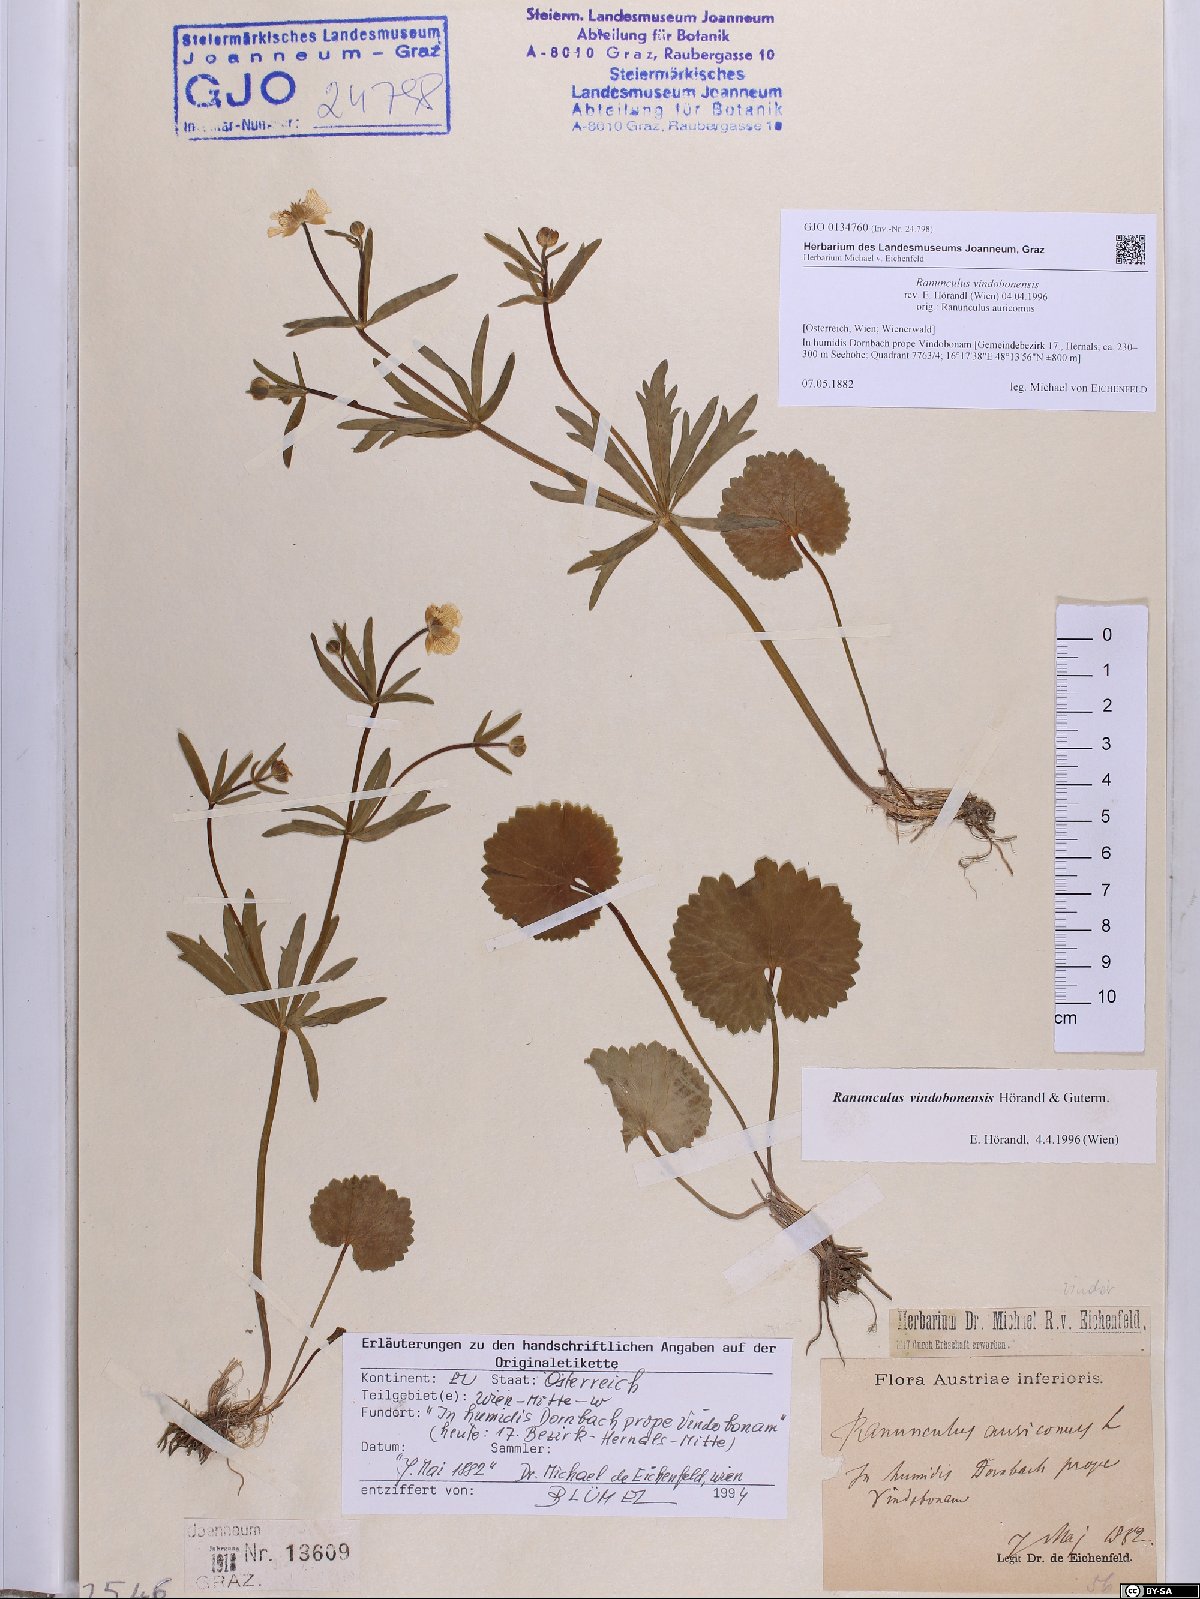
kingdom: Plantae
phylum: Tracheophyta
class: Magnoliopsida
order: Ranunculales
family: Ranunculaceae
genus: Ranunculus
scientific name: Ranunculus vindobonensis
